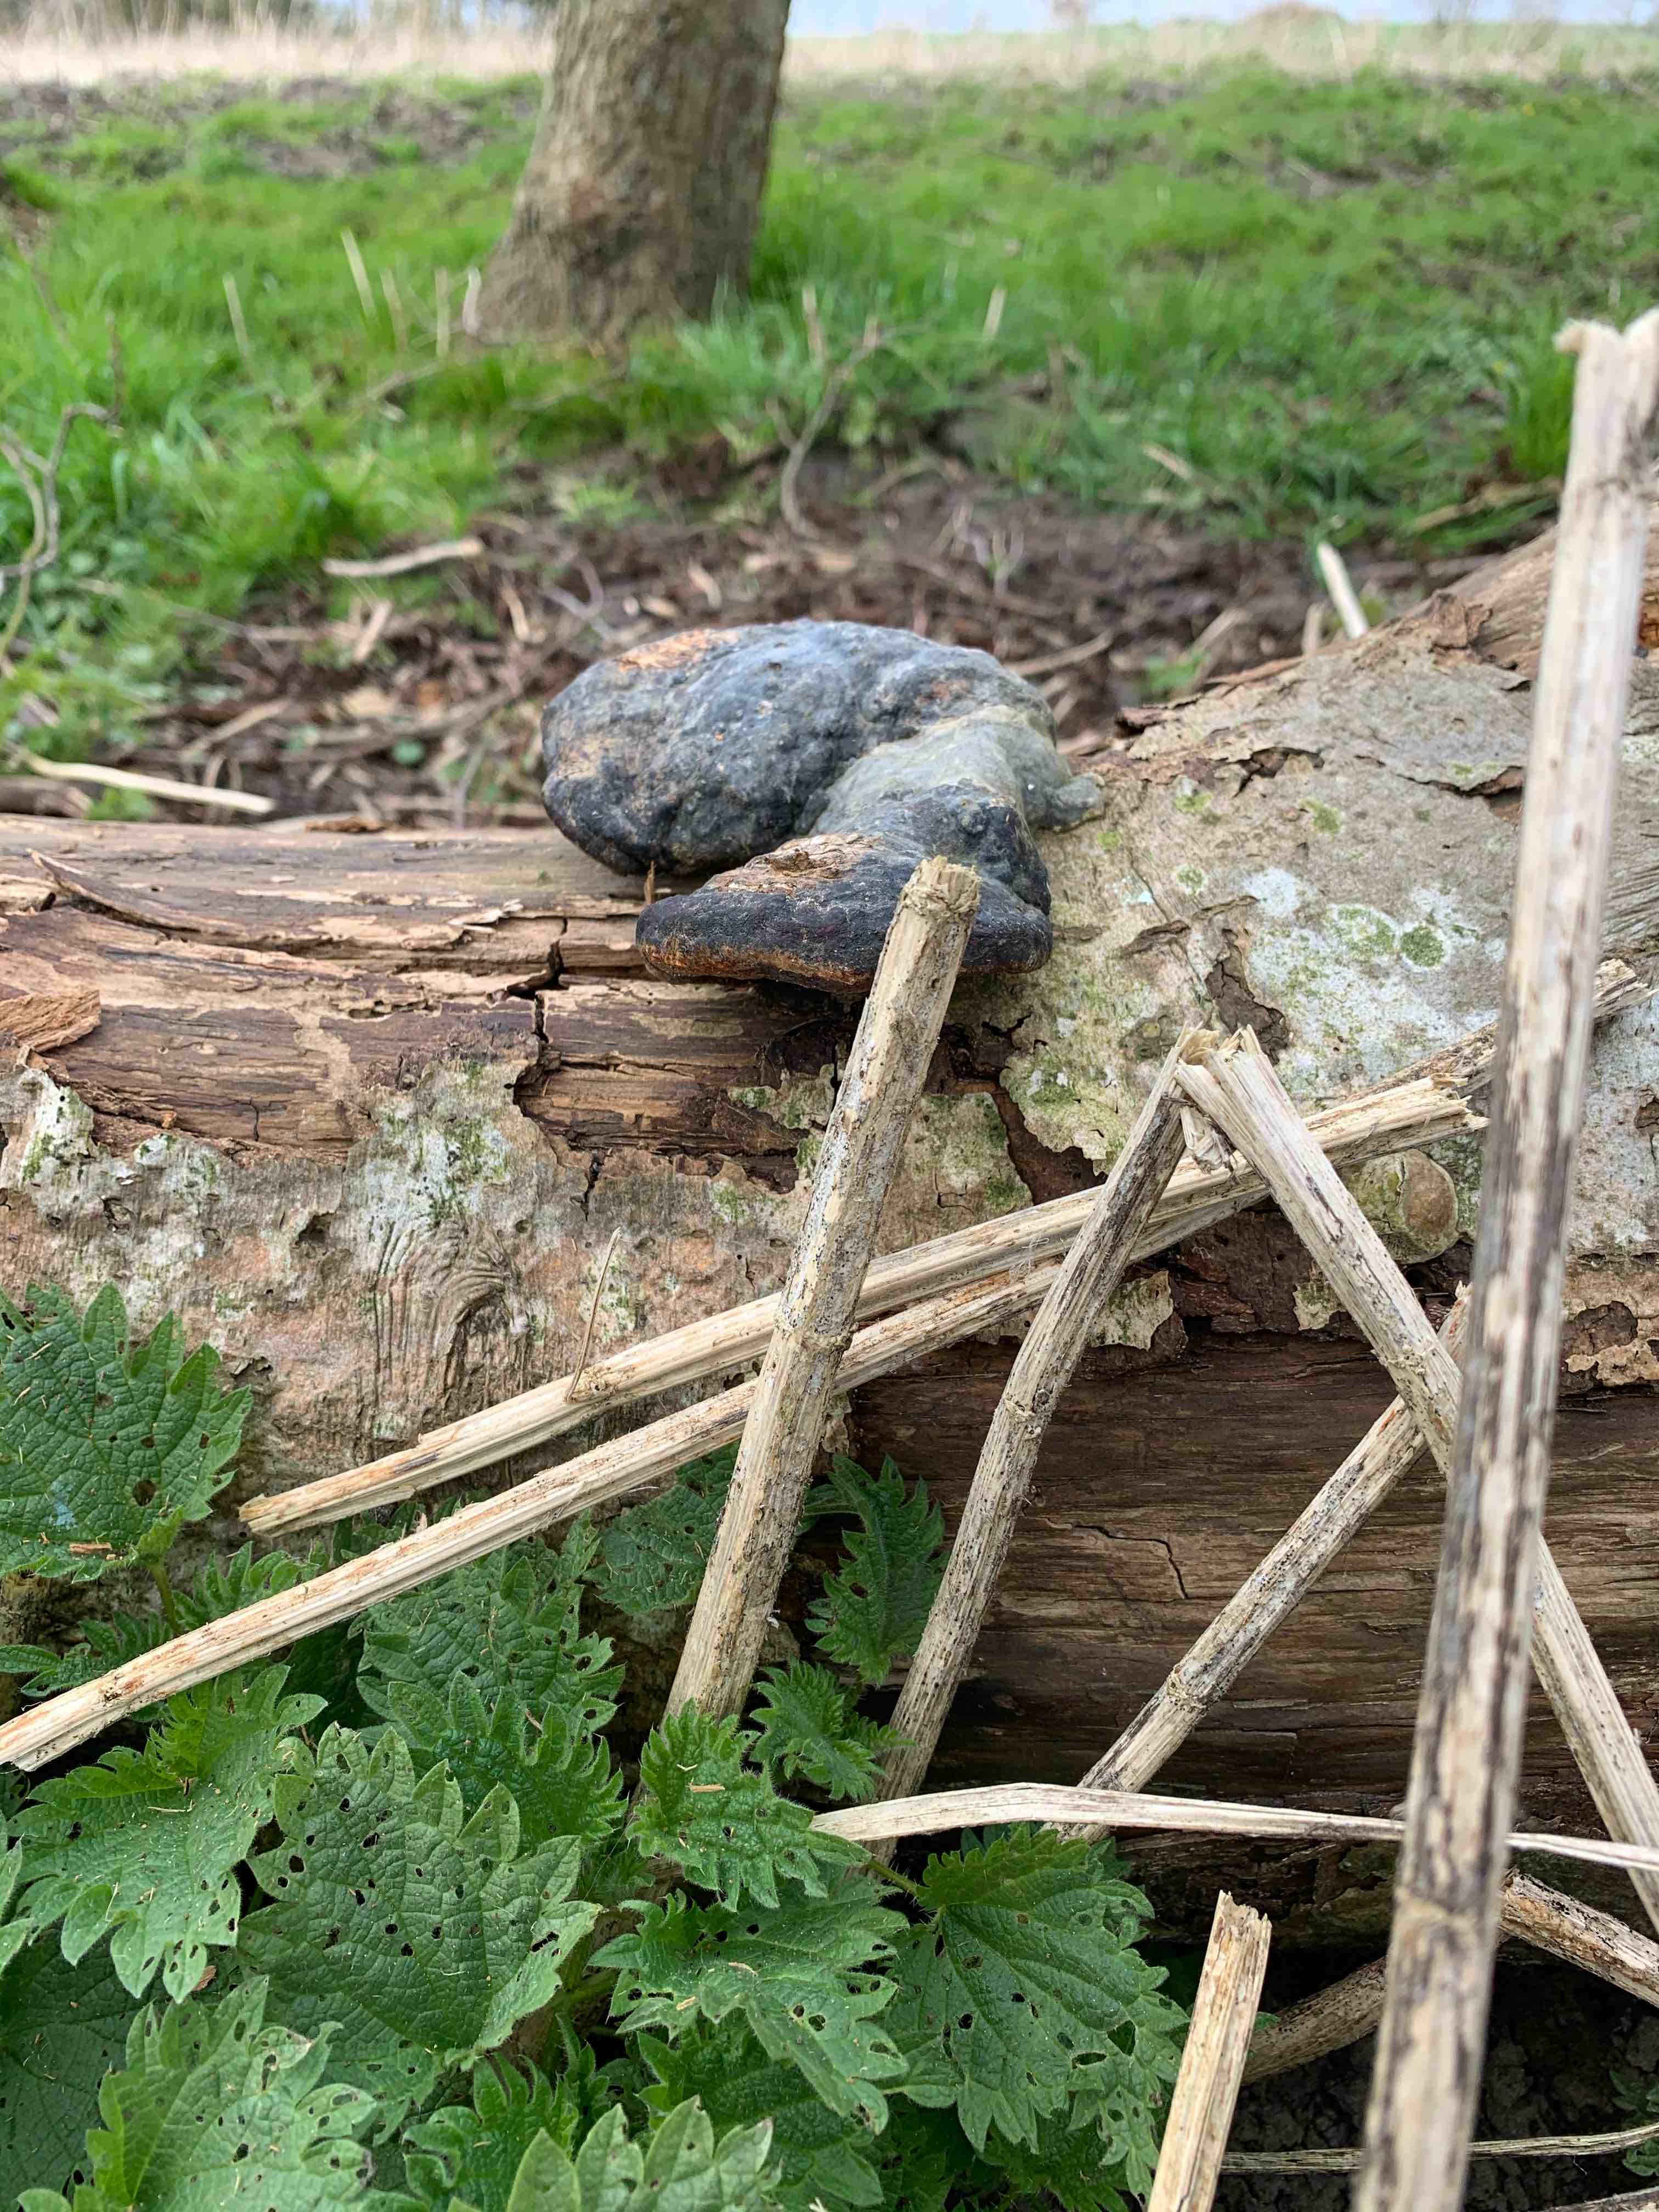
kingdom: Fungi
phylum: Basidiomycota
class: Agaricomycetes
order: Polyporales
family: Fomitopsidaceae
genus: Fomitopsis
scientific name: Fomitopsis pinicola
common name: randbæltet hovporesvamp
